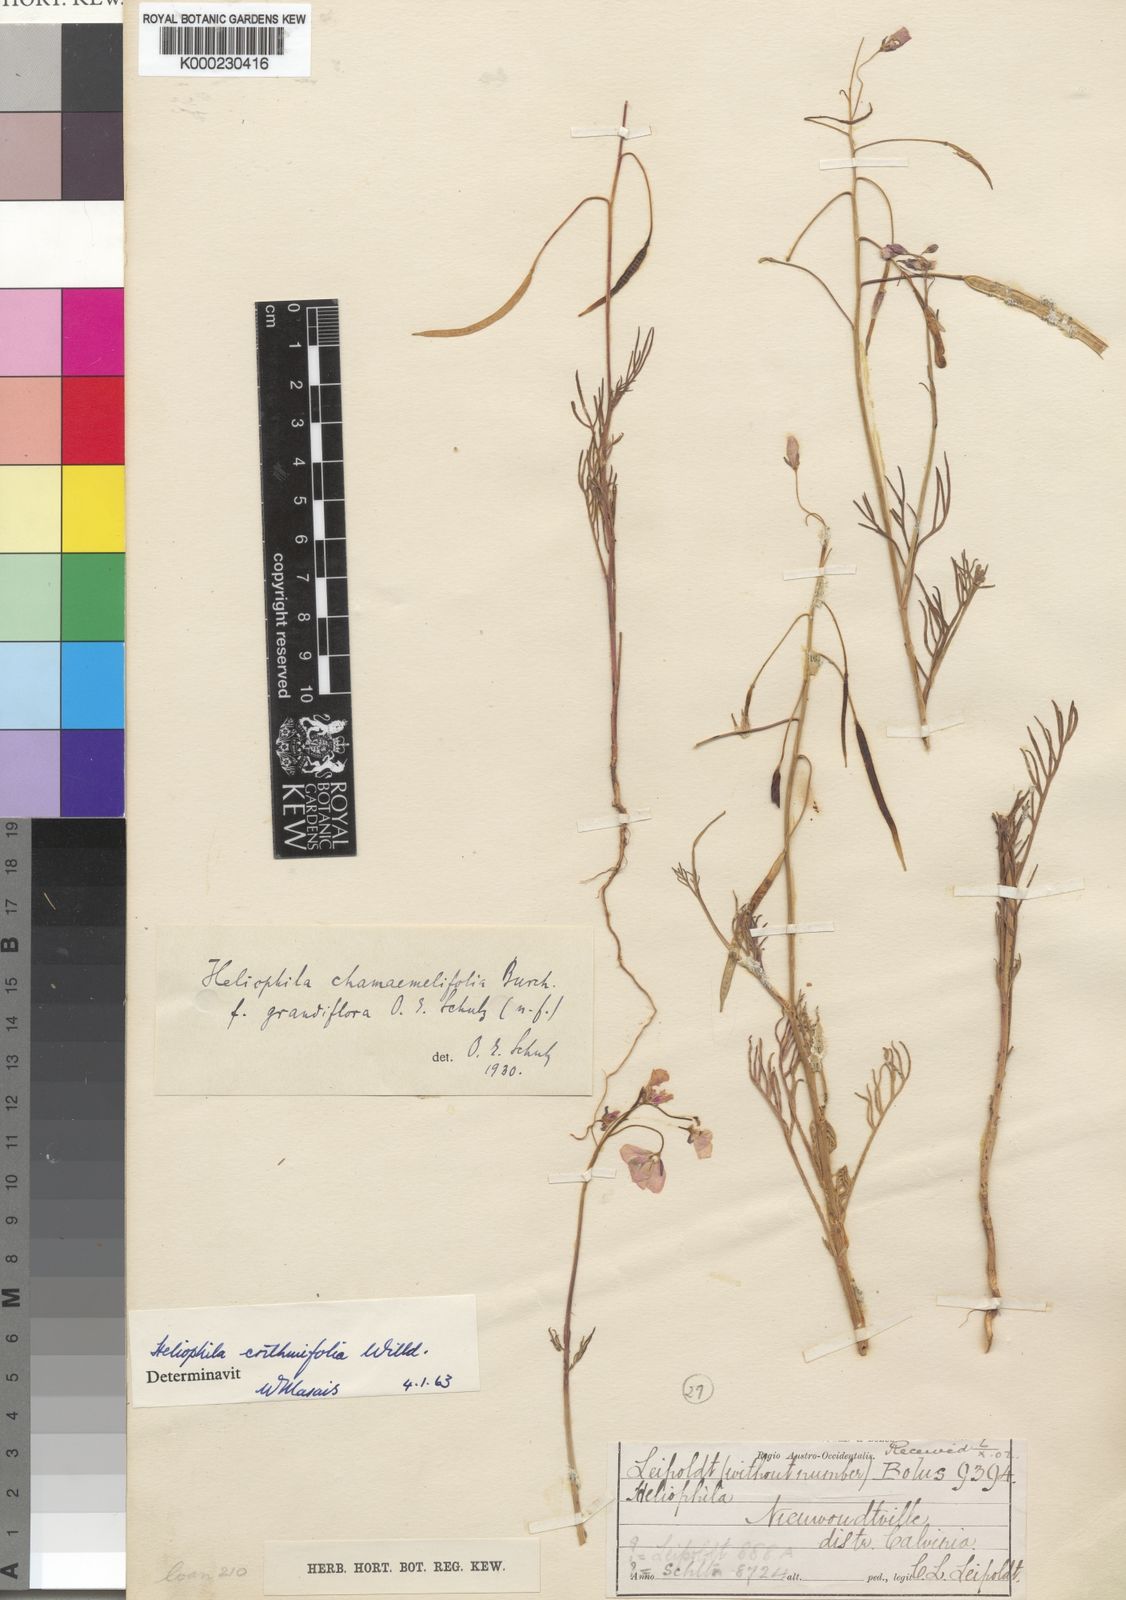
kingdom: Plantae
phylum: Tracheophyta
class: Magnoliopsida
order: Brassicales
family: Brassicaceae
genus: Heliophila
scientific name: Heliophila crithmifolia
